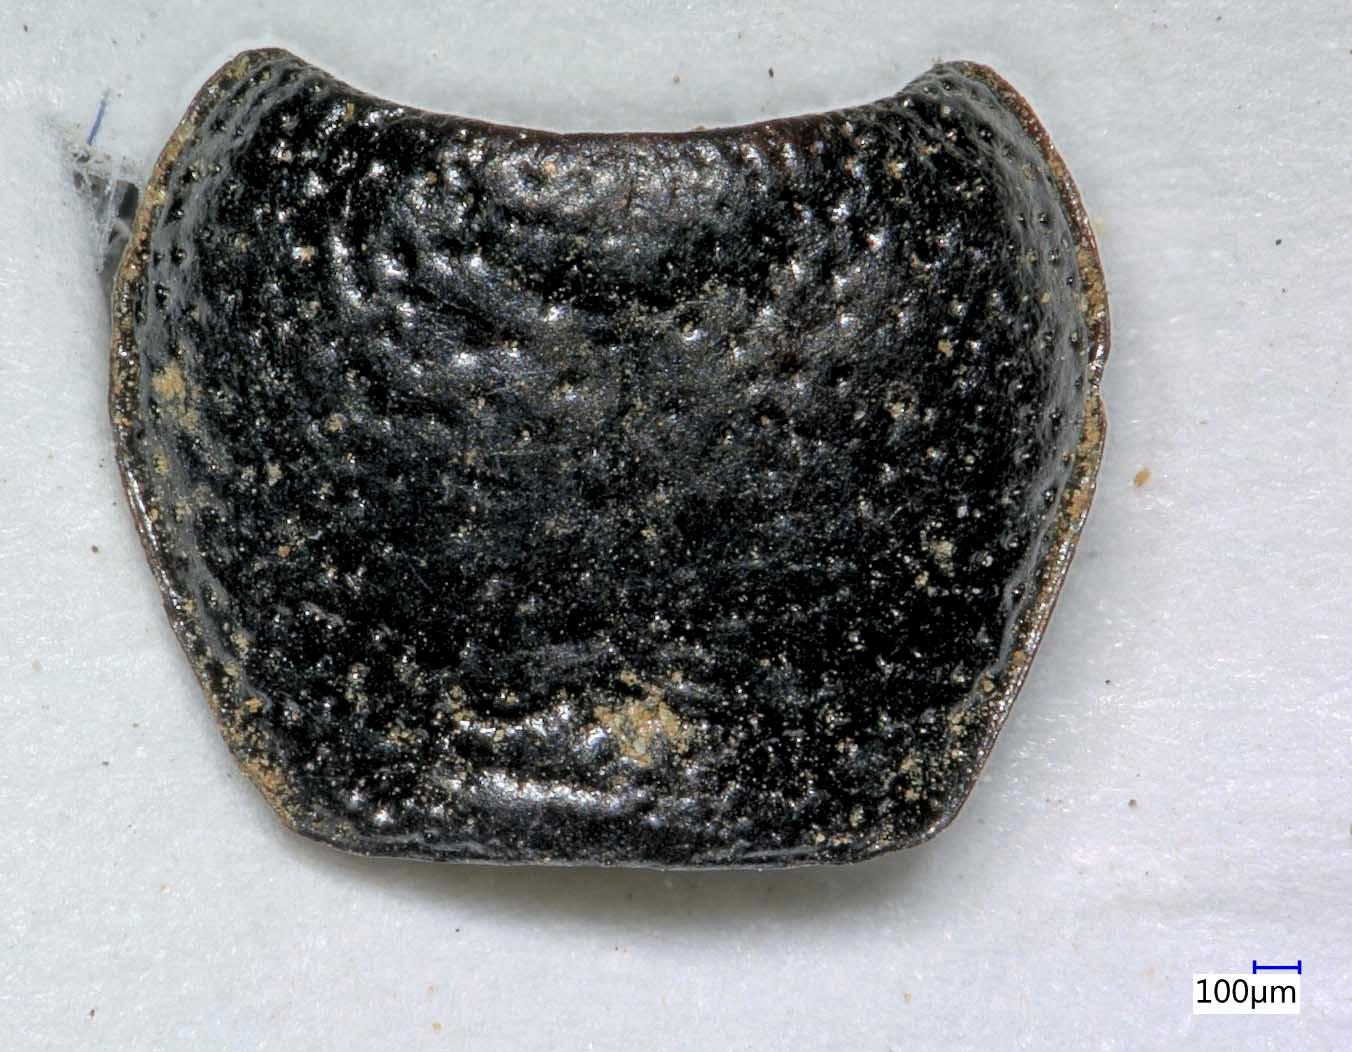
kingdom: Animalia
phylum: Arthropoda
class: Insecta
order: Coleoptera
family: Carabidae
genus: Dicheirus
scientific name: Dicheirus dilatatus
